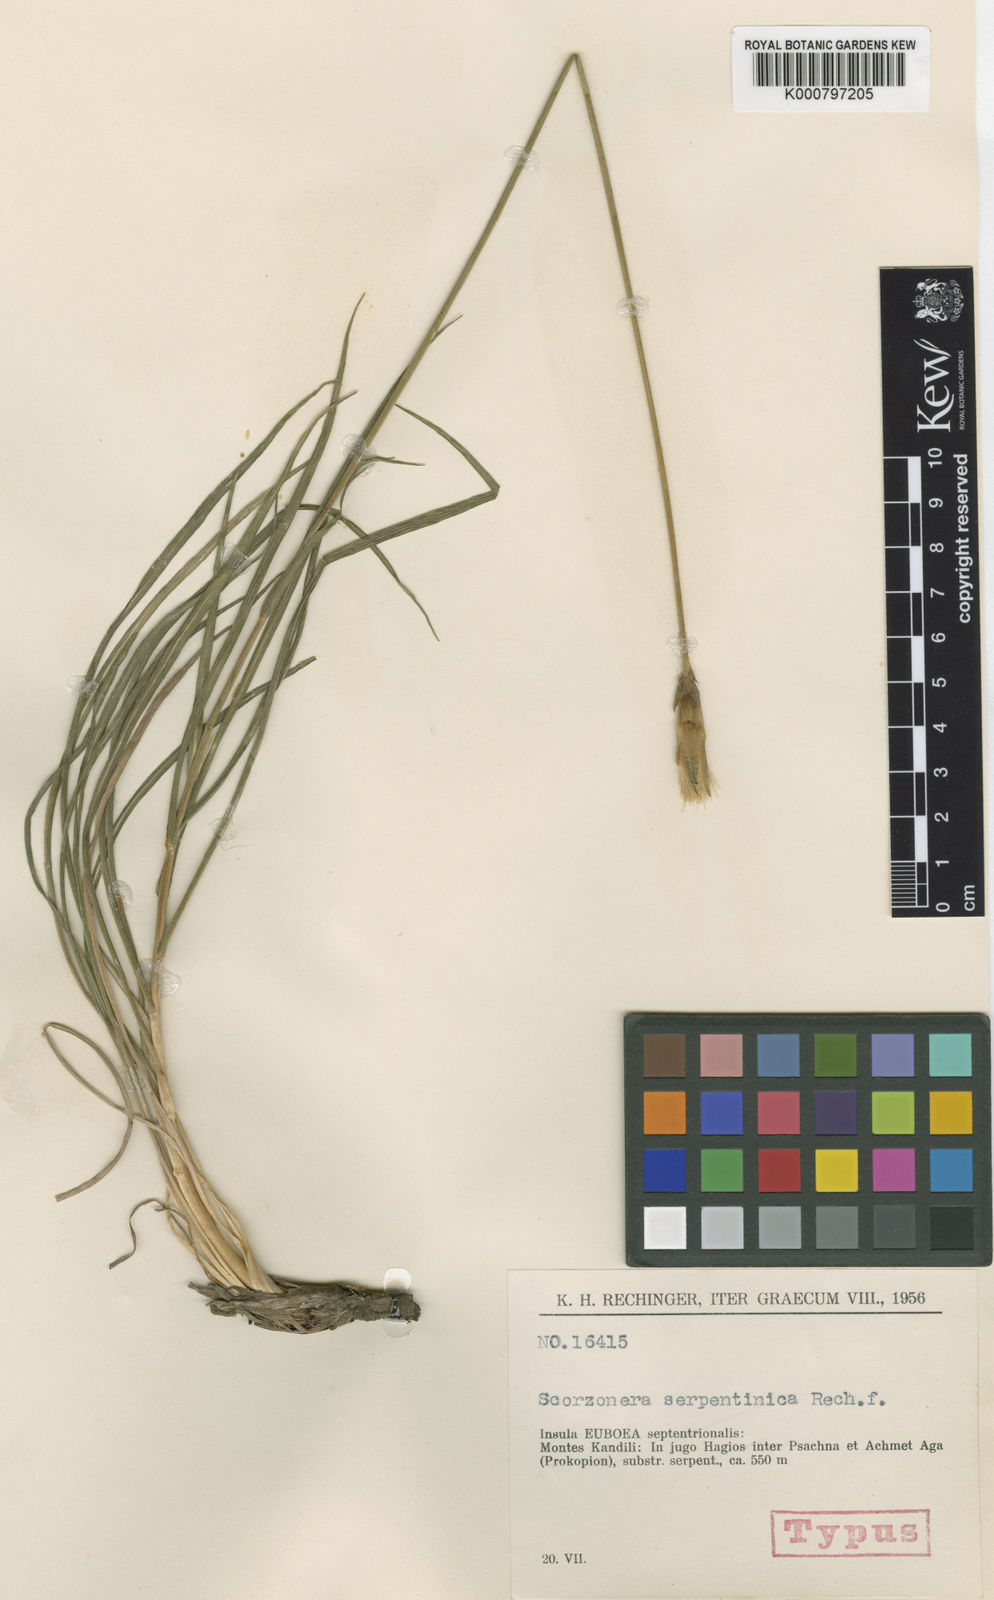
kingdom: Plantae
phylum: Tracheophyta
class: Magnoliopsida
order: Asterales
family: Asteraceae
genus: Pseudopodospermum
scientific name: Pseudopodospermum crocifolium
